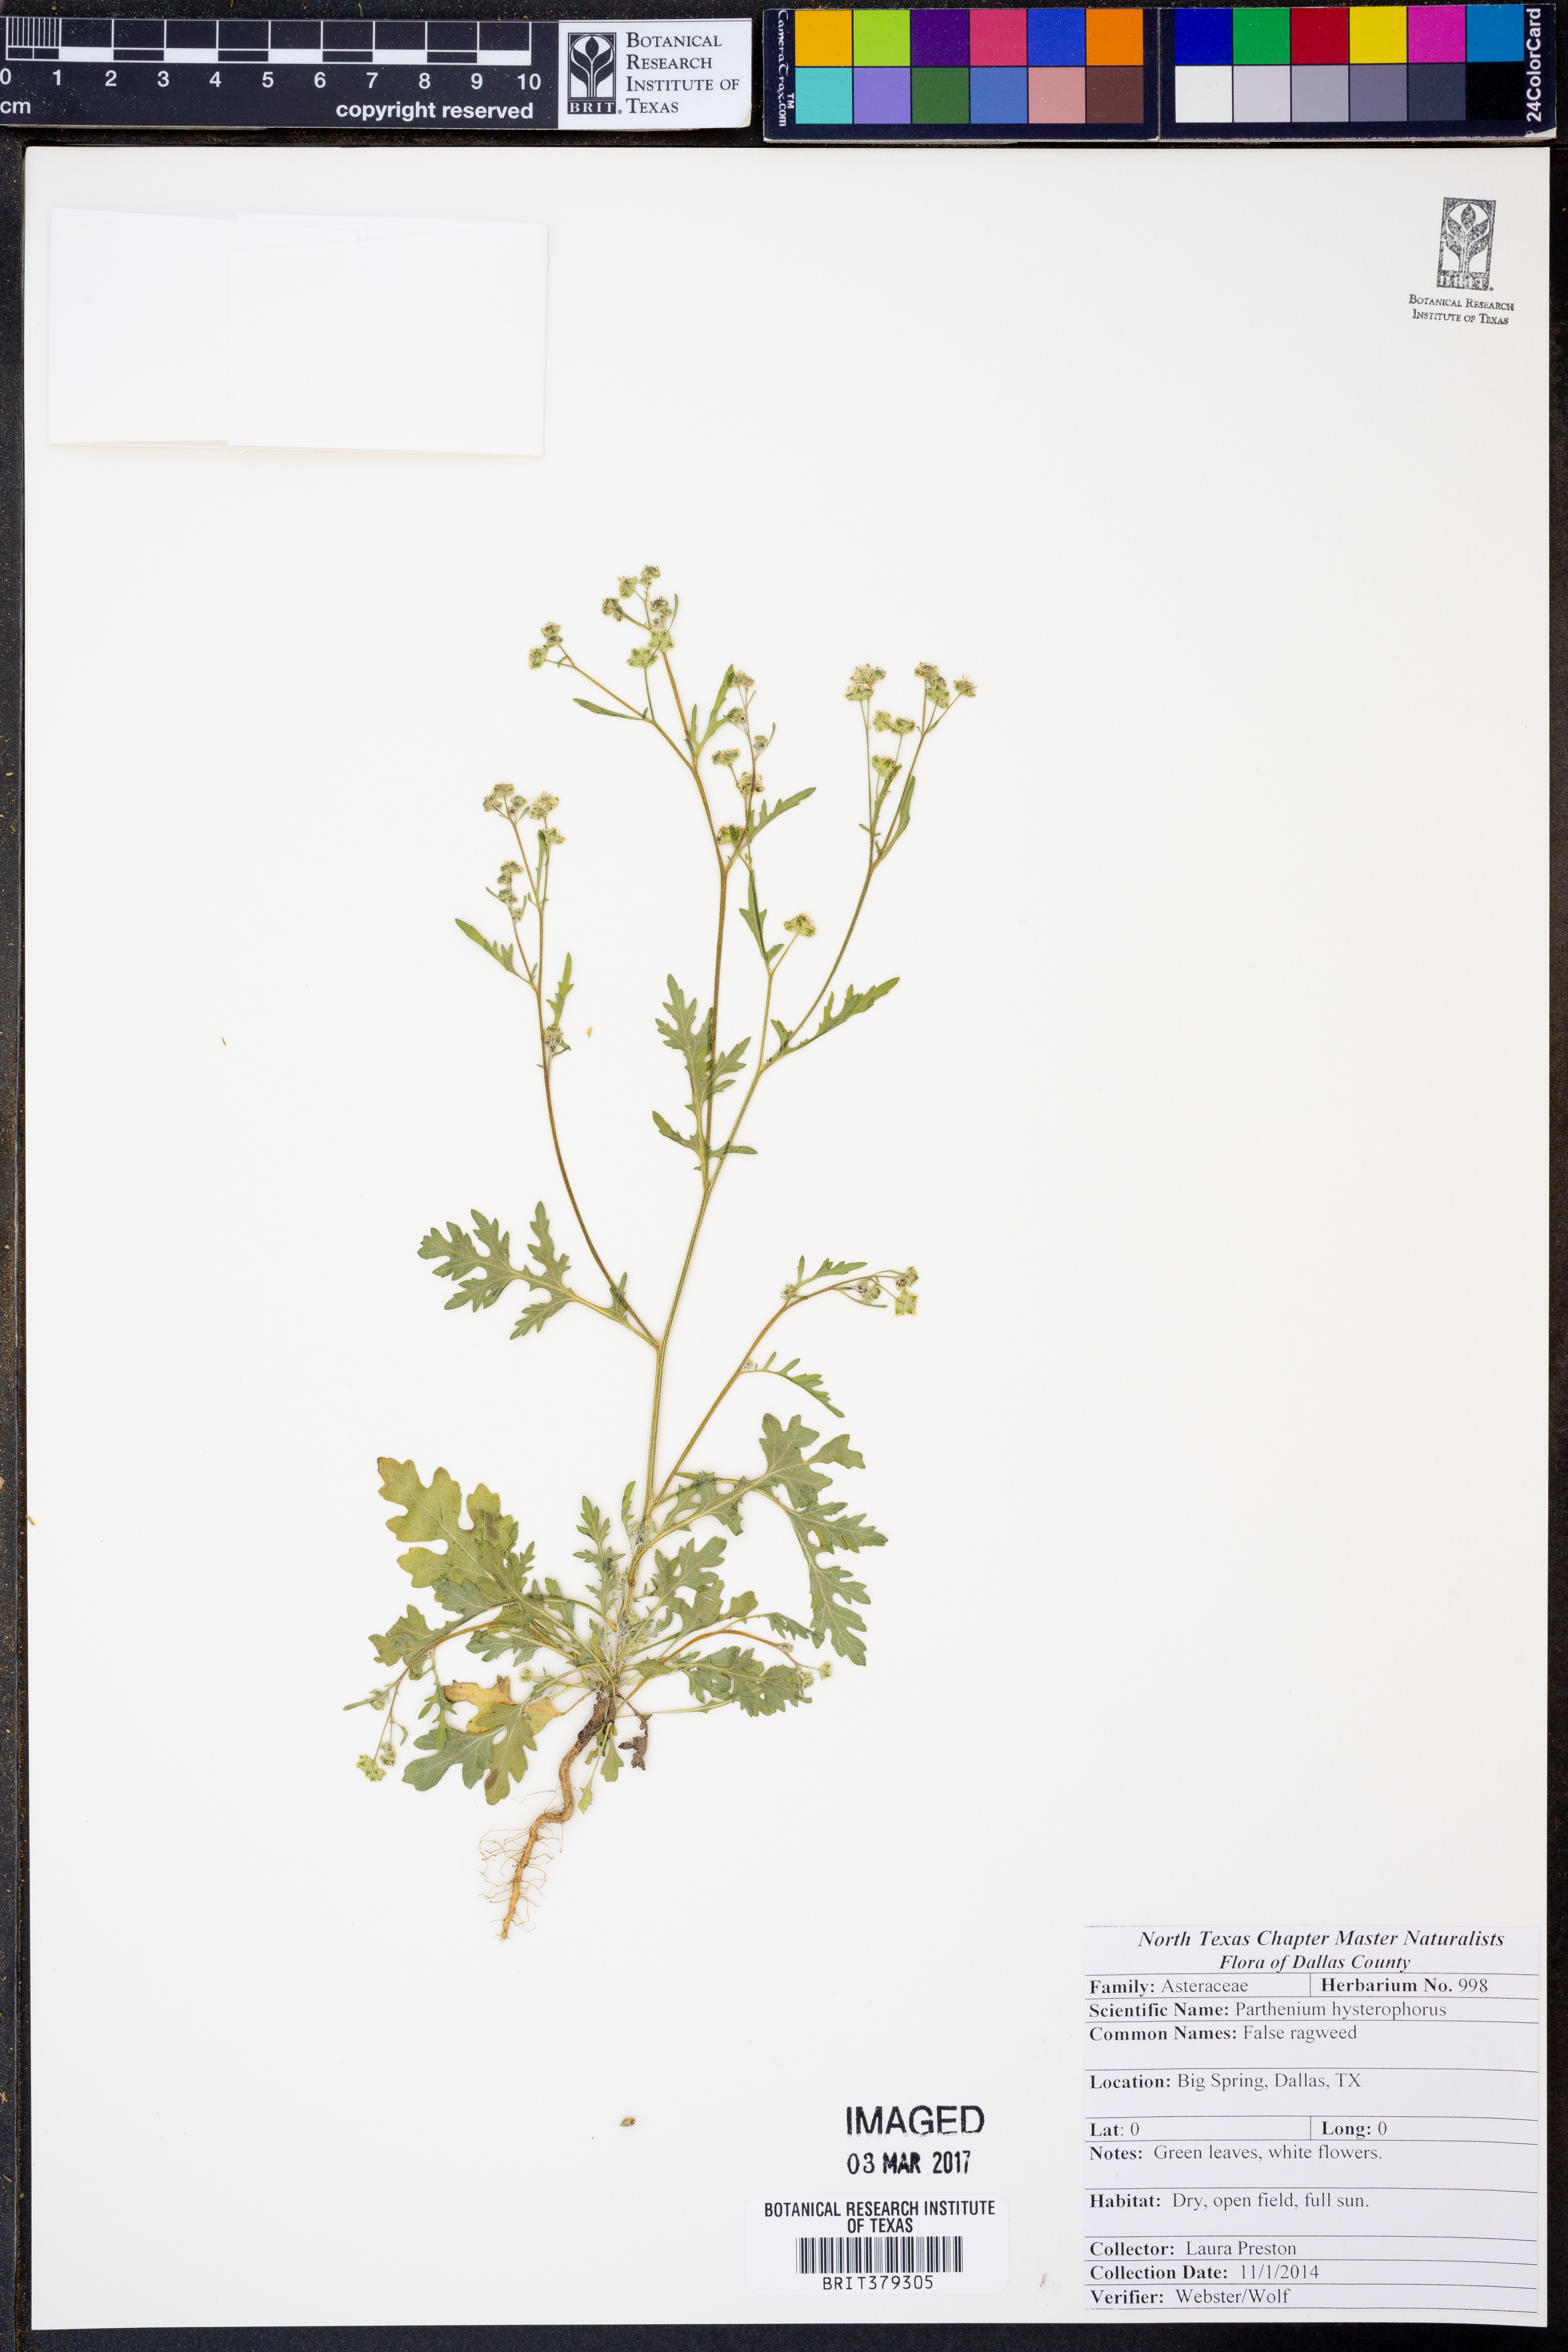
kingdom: Plantae
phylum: Tracheophyta
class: Magnoliopsida
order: Asterales
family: Asteraceae
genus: Parthenium
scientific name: Parthenium hysterophorus
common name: Santa maria feverfew
